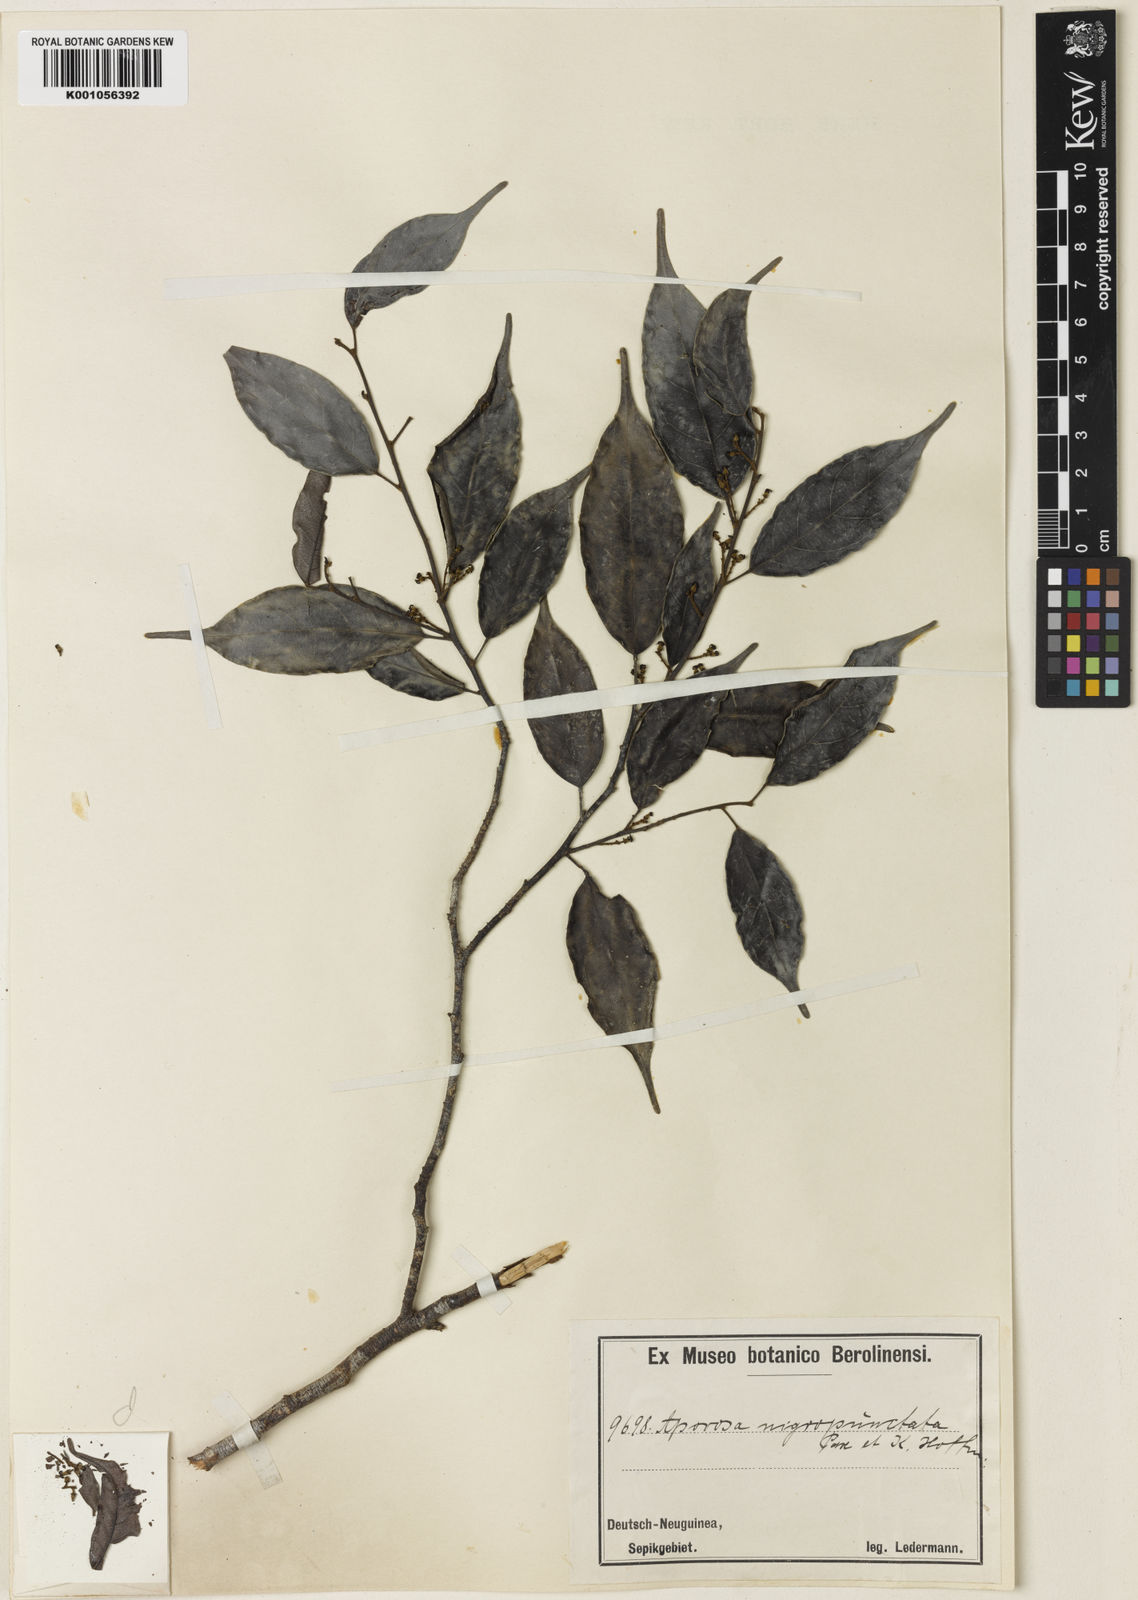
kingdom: Plantae
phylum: Tracheophyta
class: Magnoliopsida
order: Malpighiales
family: Phyllanthaceae
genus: Aporosa
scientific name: Aporosa nigropunctata
